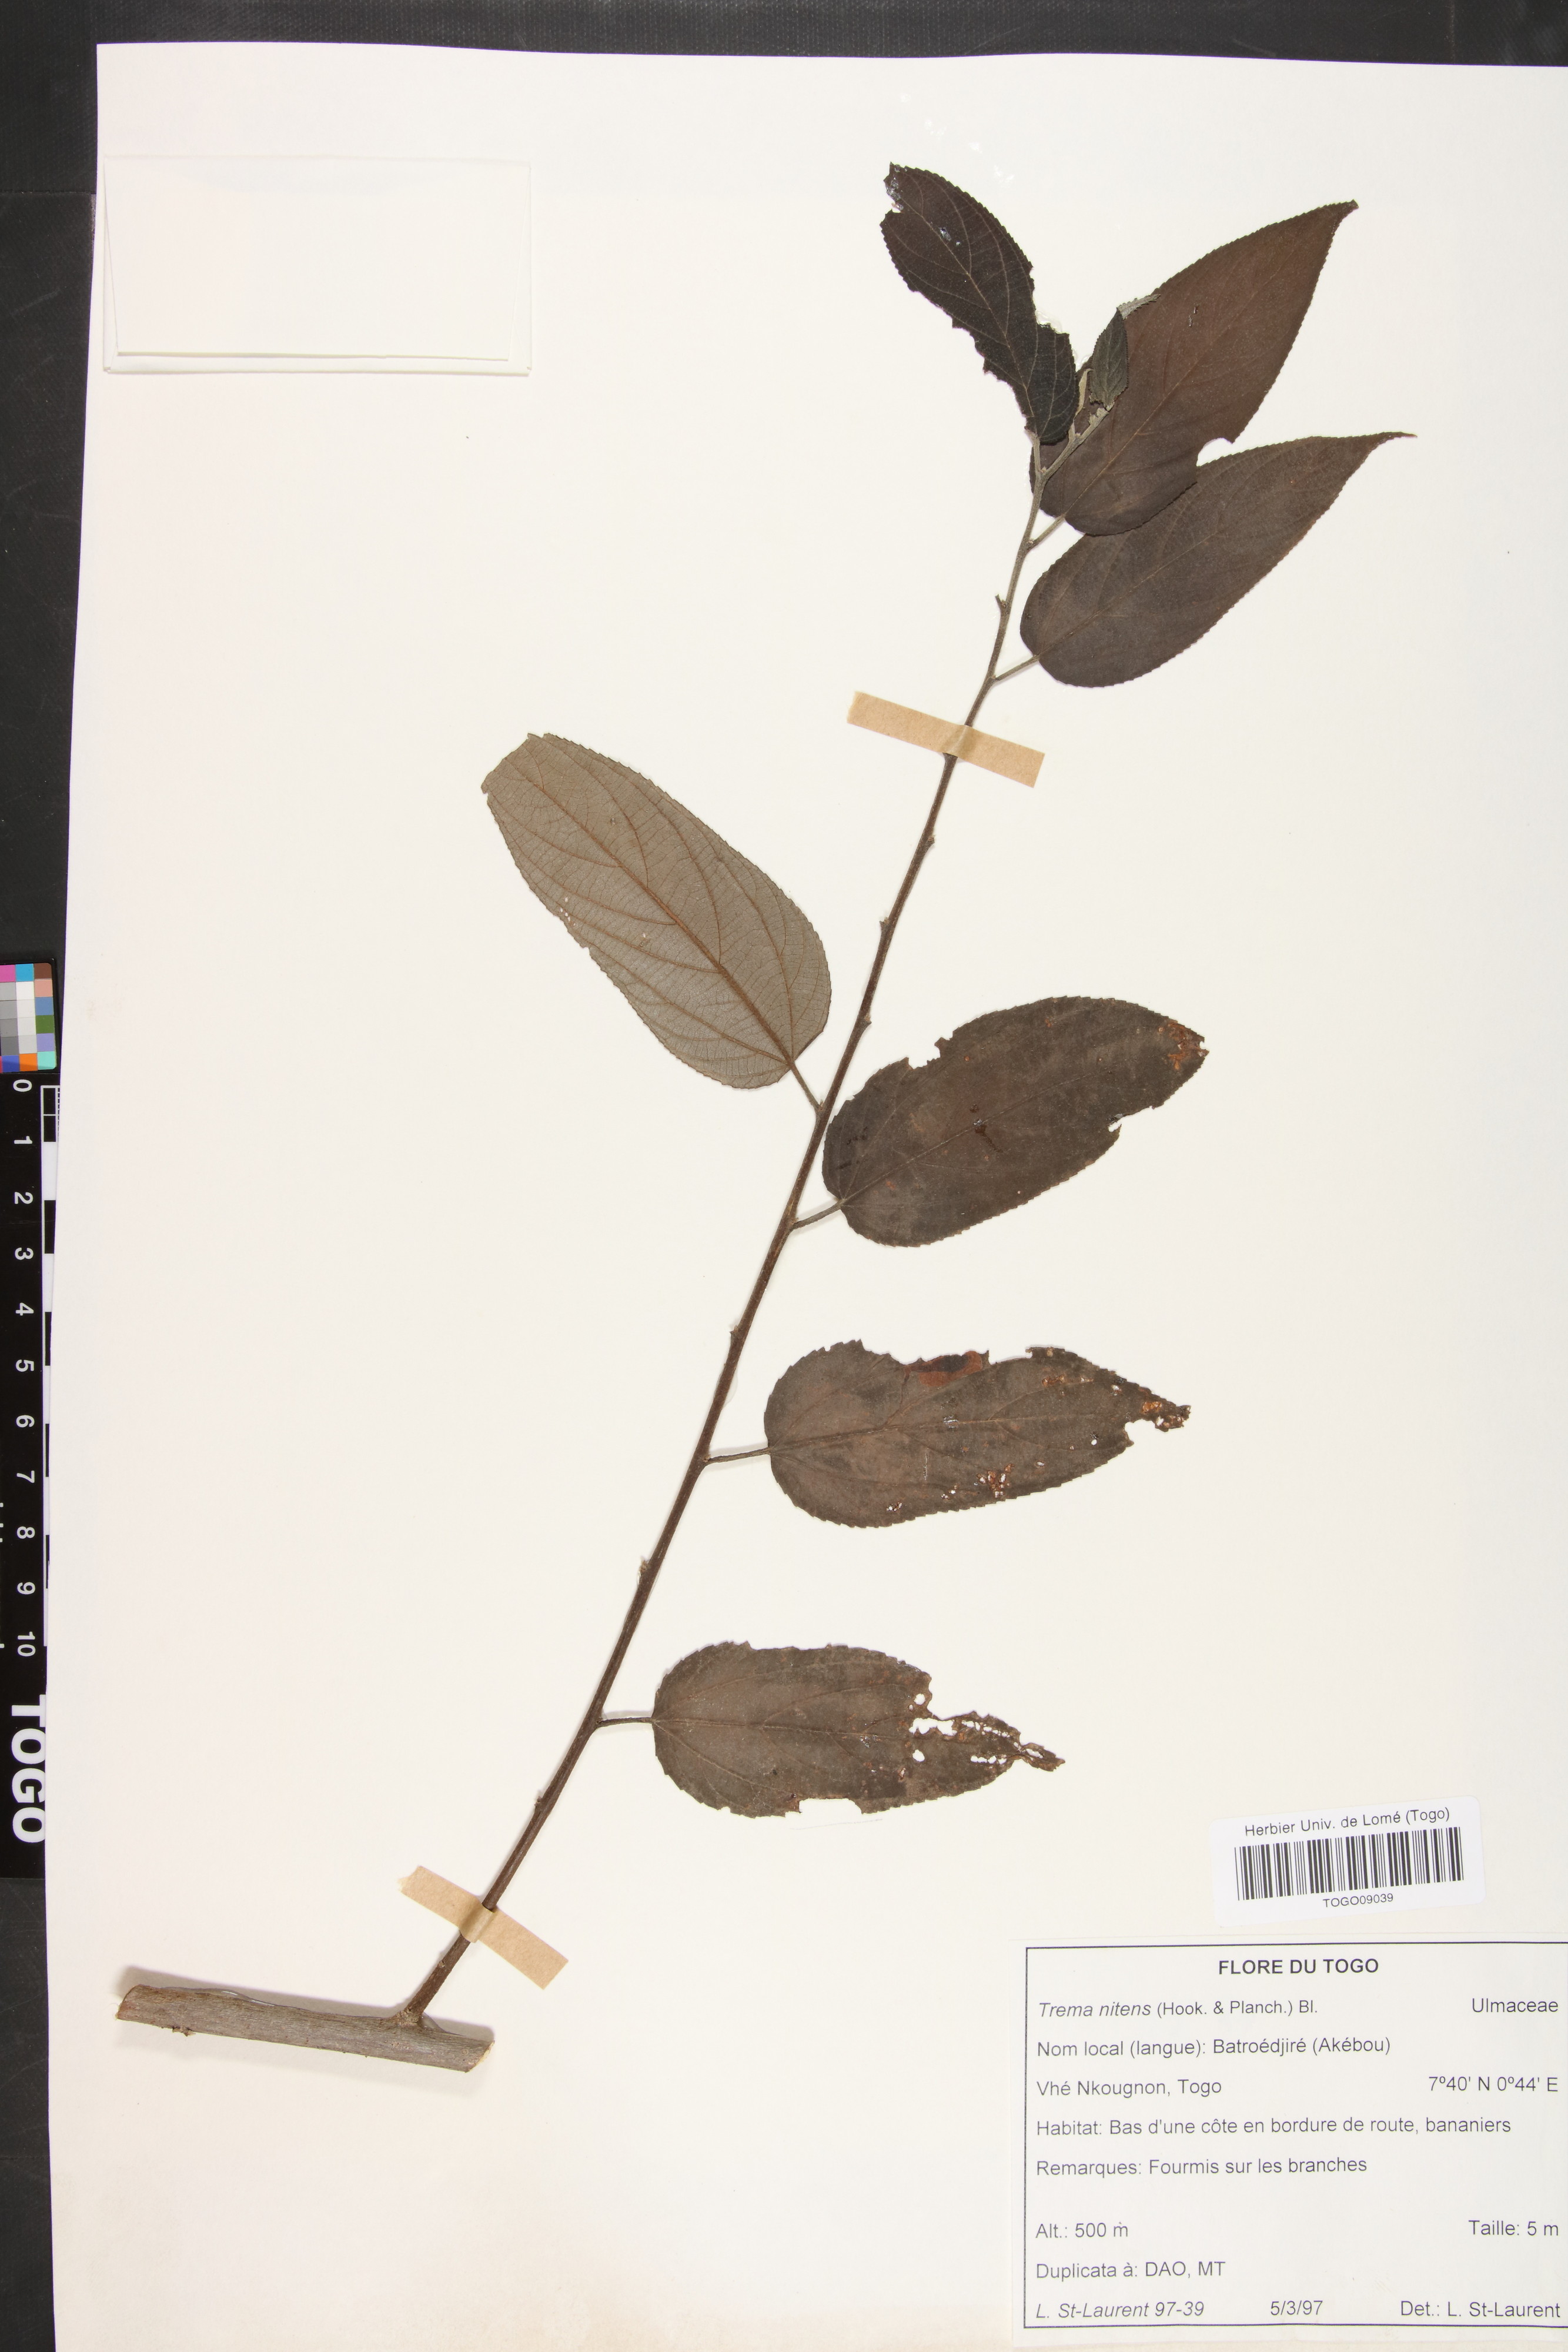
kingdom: Plantae
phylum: Tracheophyta
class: Magnoliopsida
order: Rosales
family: Cannabaceae
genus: Trema
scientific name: Trema orientale
